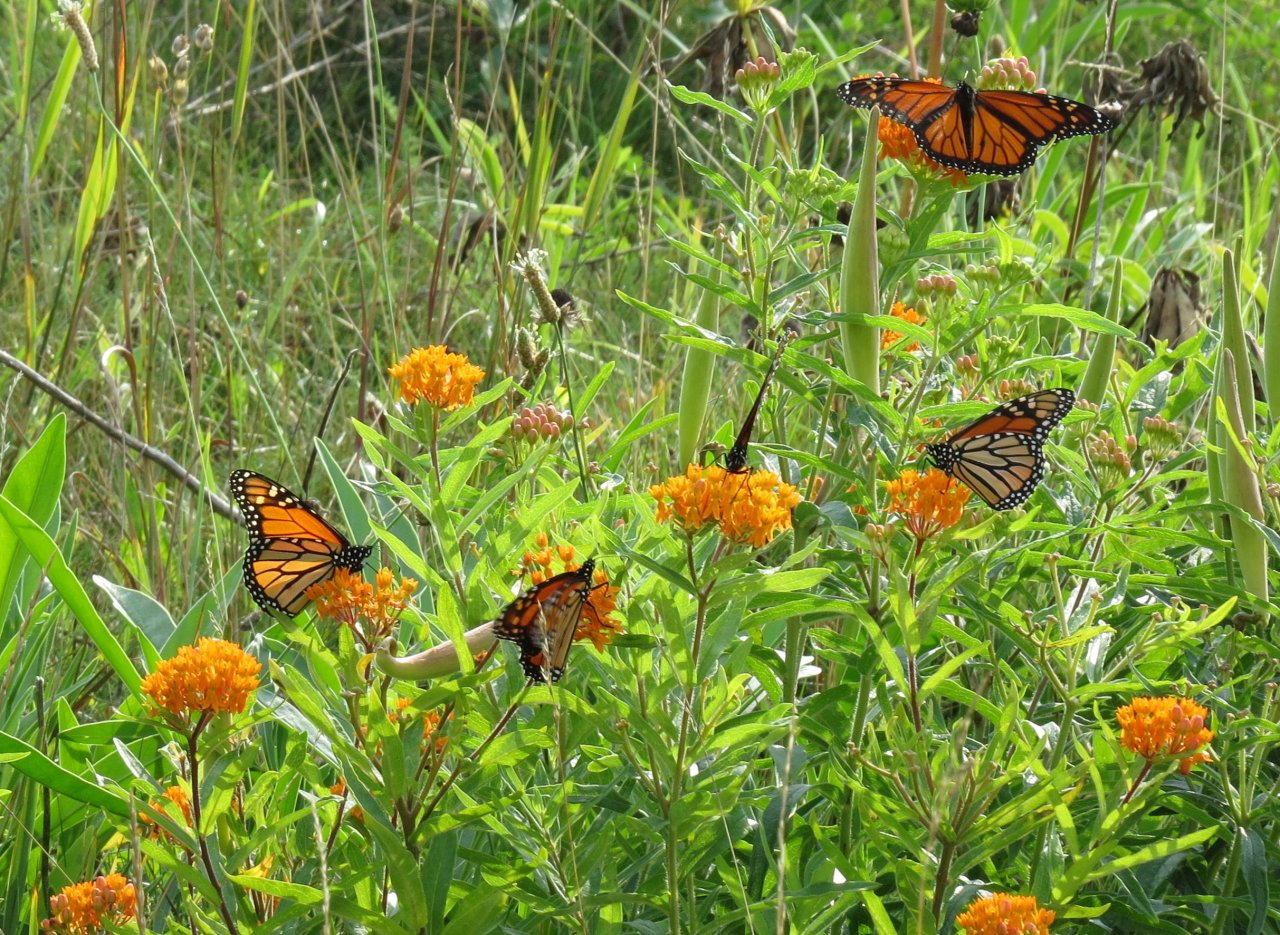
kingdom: Animalia
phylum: Arthropoda
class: Insecta
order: Lepidoptera
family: Nymphalidae
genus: Danaus
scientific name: Danaus plexippus
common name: Monarch
